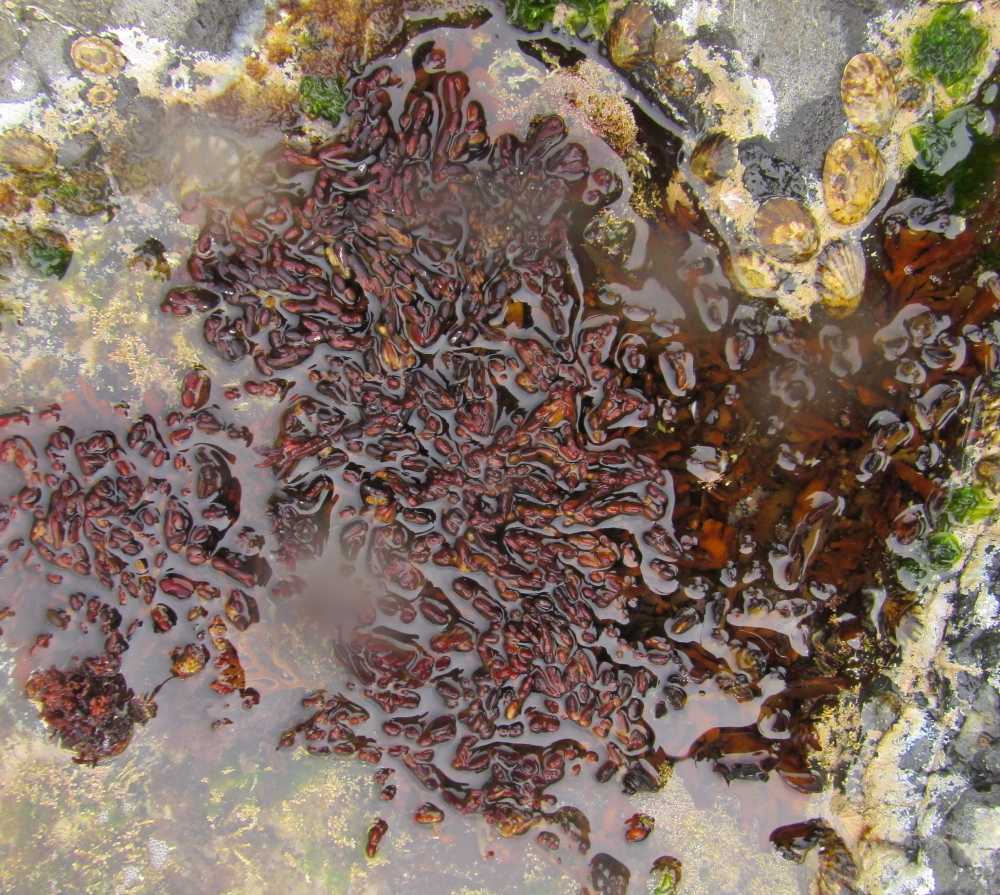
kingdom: Chromista
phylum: Ochrophyta
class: Phaeophyceae
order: Fucales
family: Xiphophoraceae
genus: Xiphophora
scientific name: Xiphophora chondrophylla
